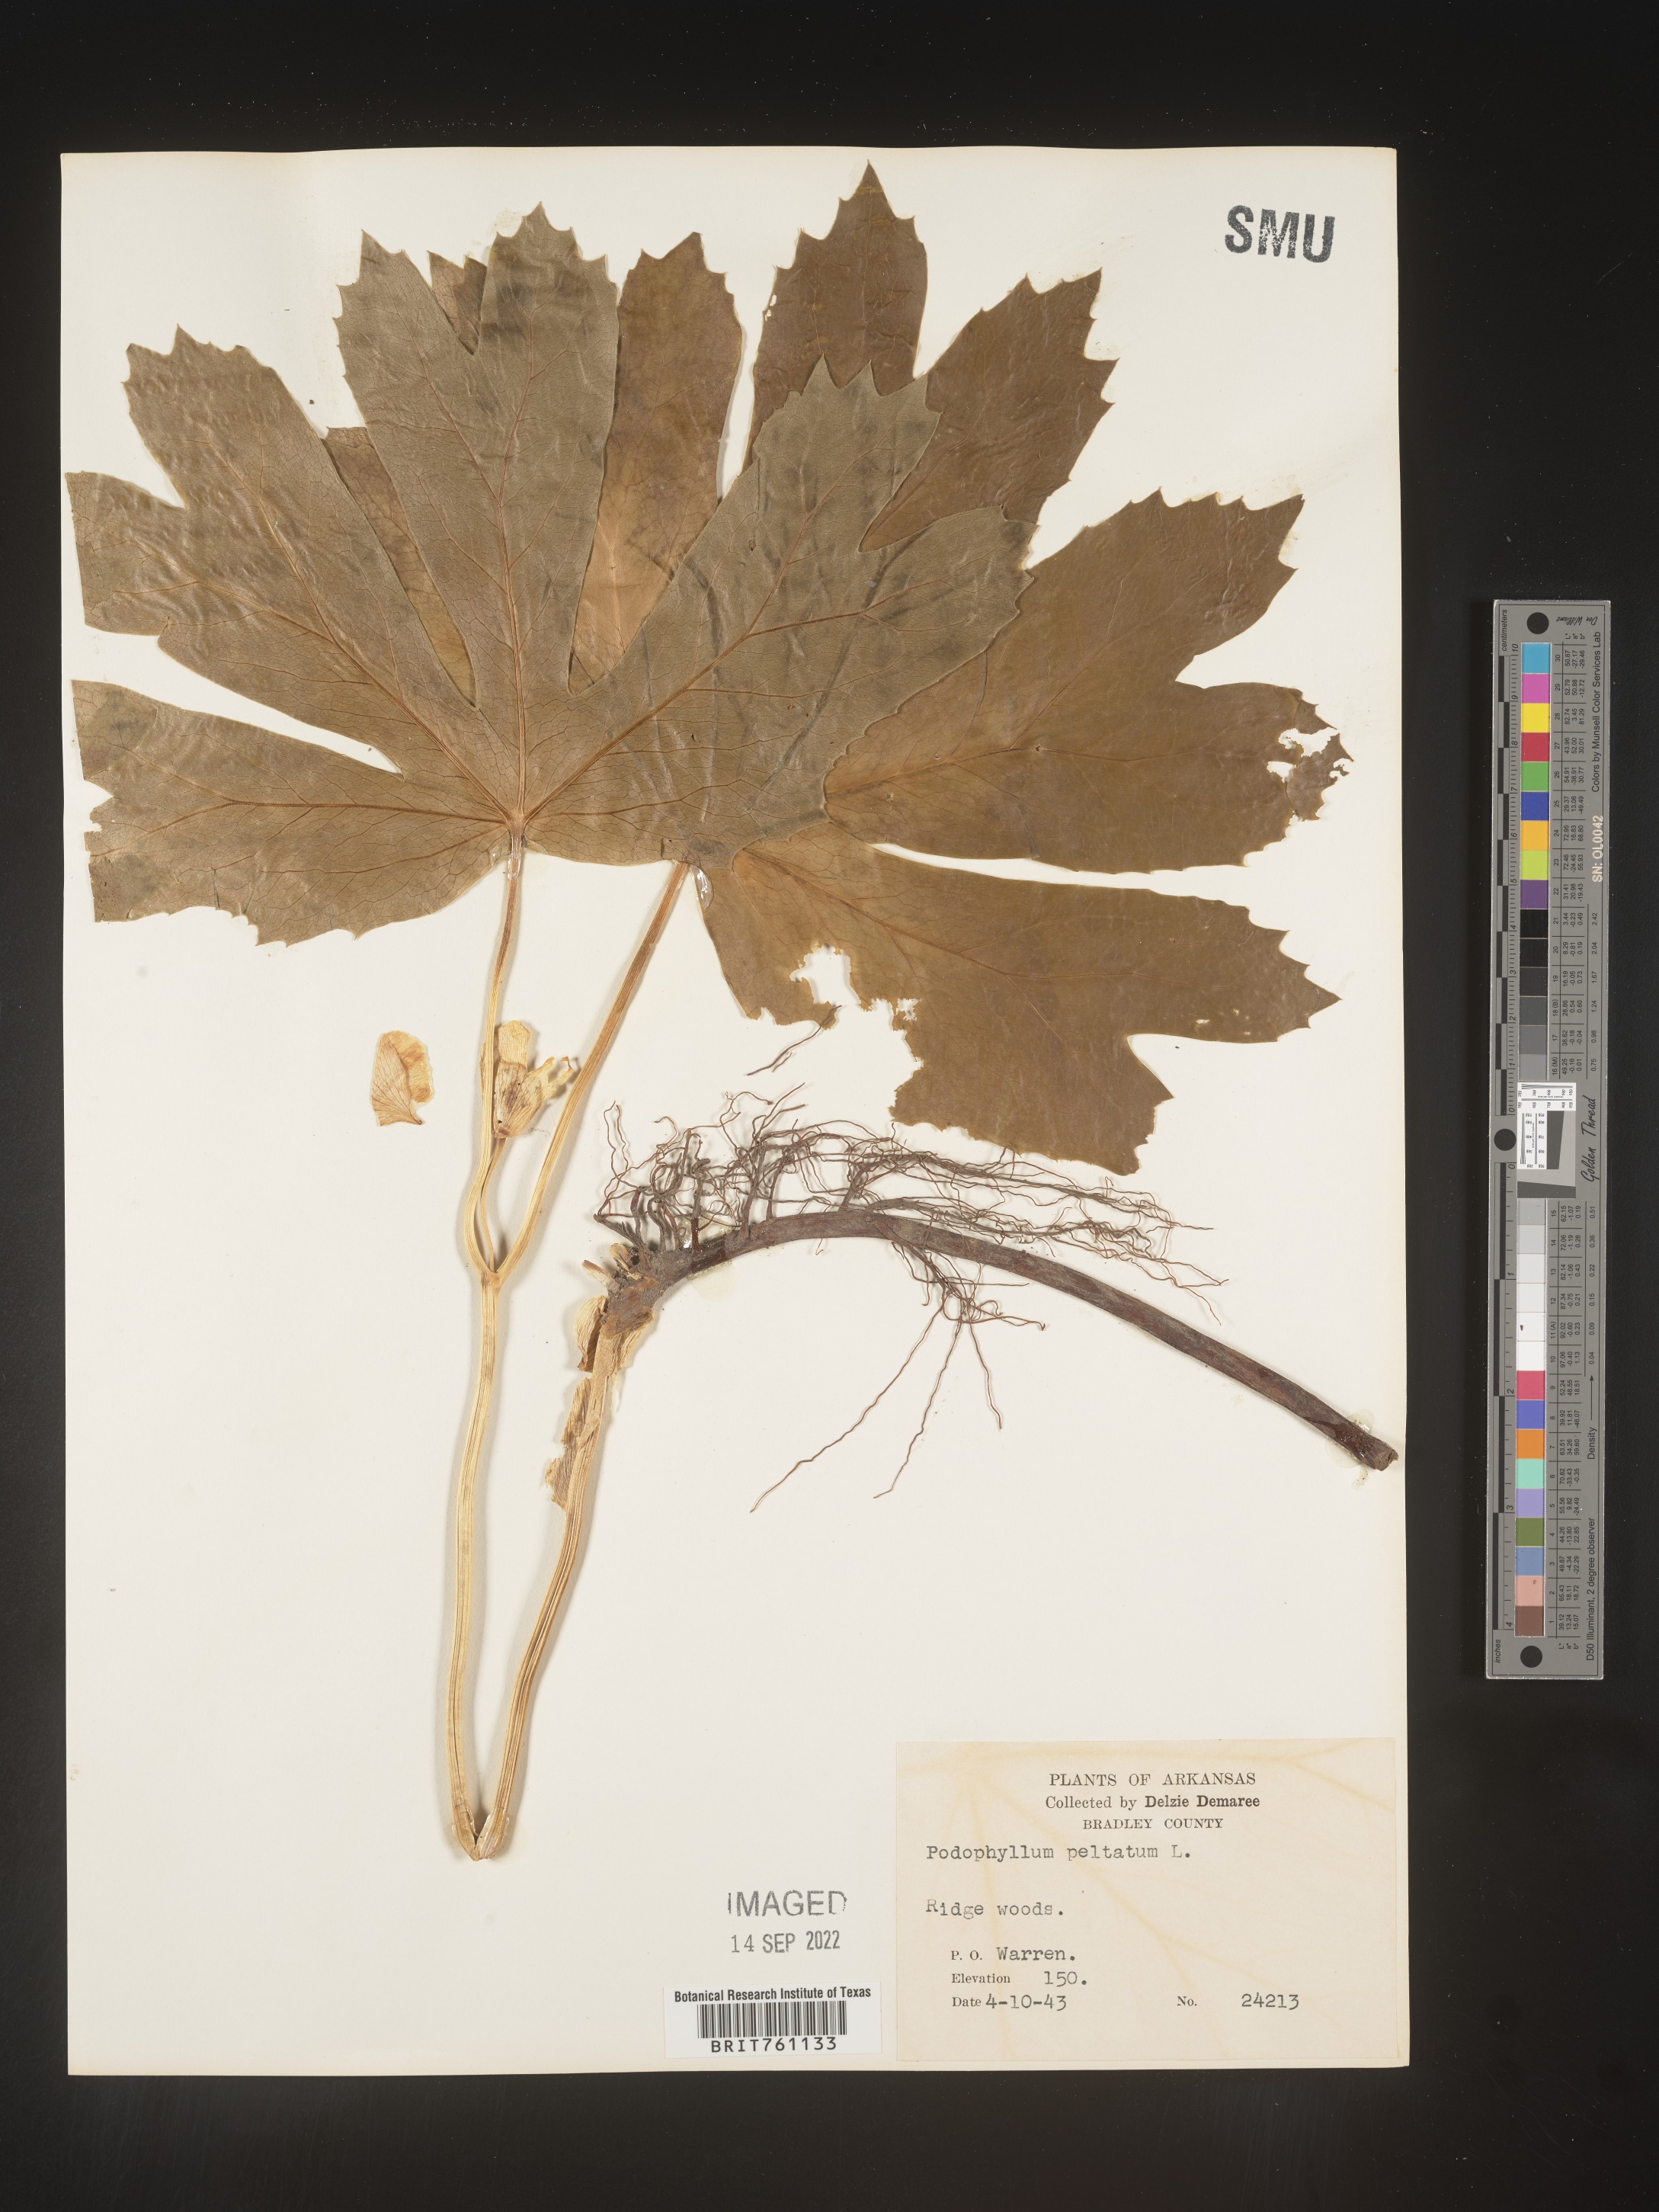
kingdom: Plantae
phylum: Tracheophyta
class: Magnoliopsida
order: Ranunculales
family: Berberidaceae
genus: Podophyllum
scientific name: Podophyllum peltatum
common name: Wild mandrake
